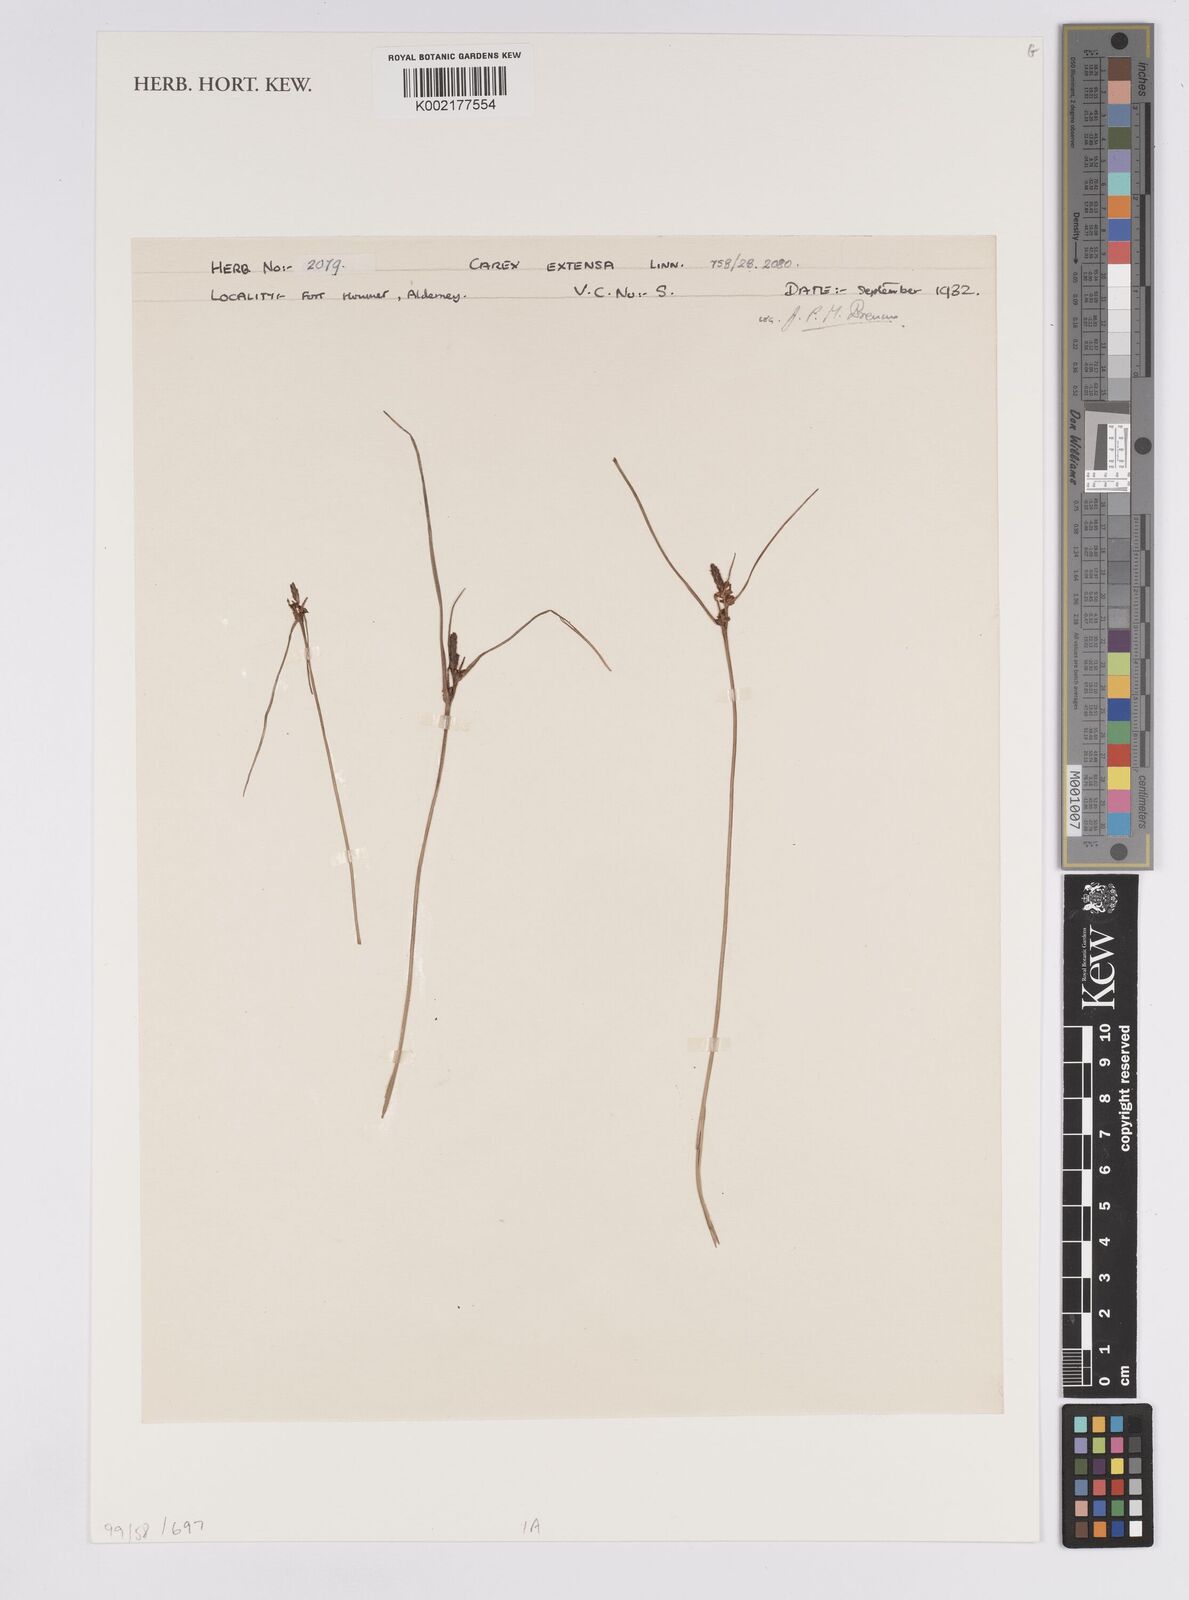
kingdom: Plantae
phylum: Tracheophyta
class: Liliopsida
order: Poales
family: Cyperaceae
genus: Carex
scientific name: Carex extensa
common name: Long-bracted sedge
